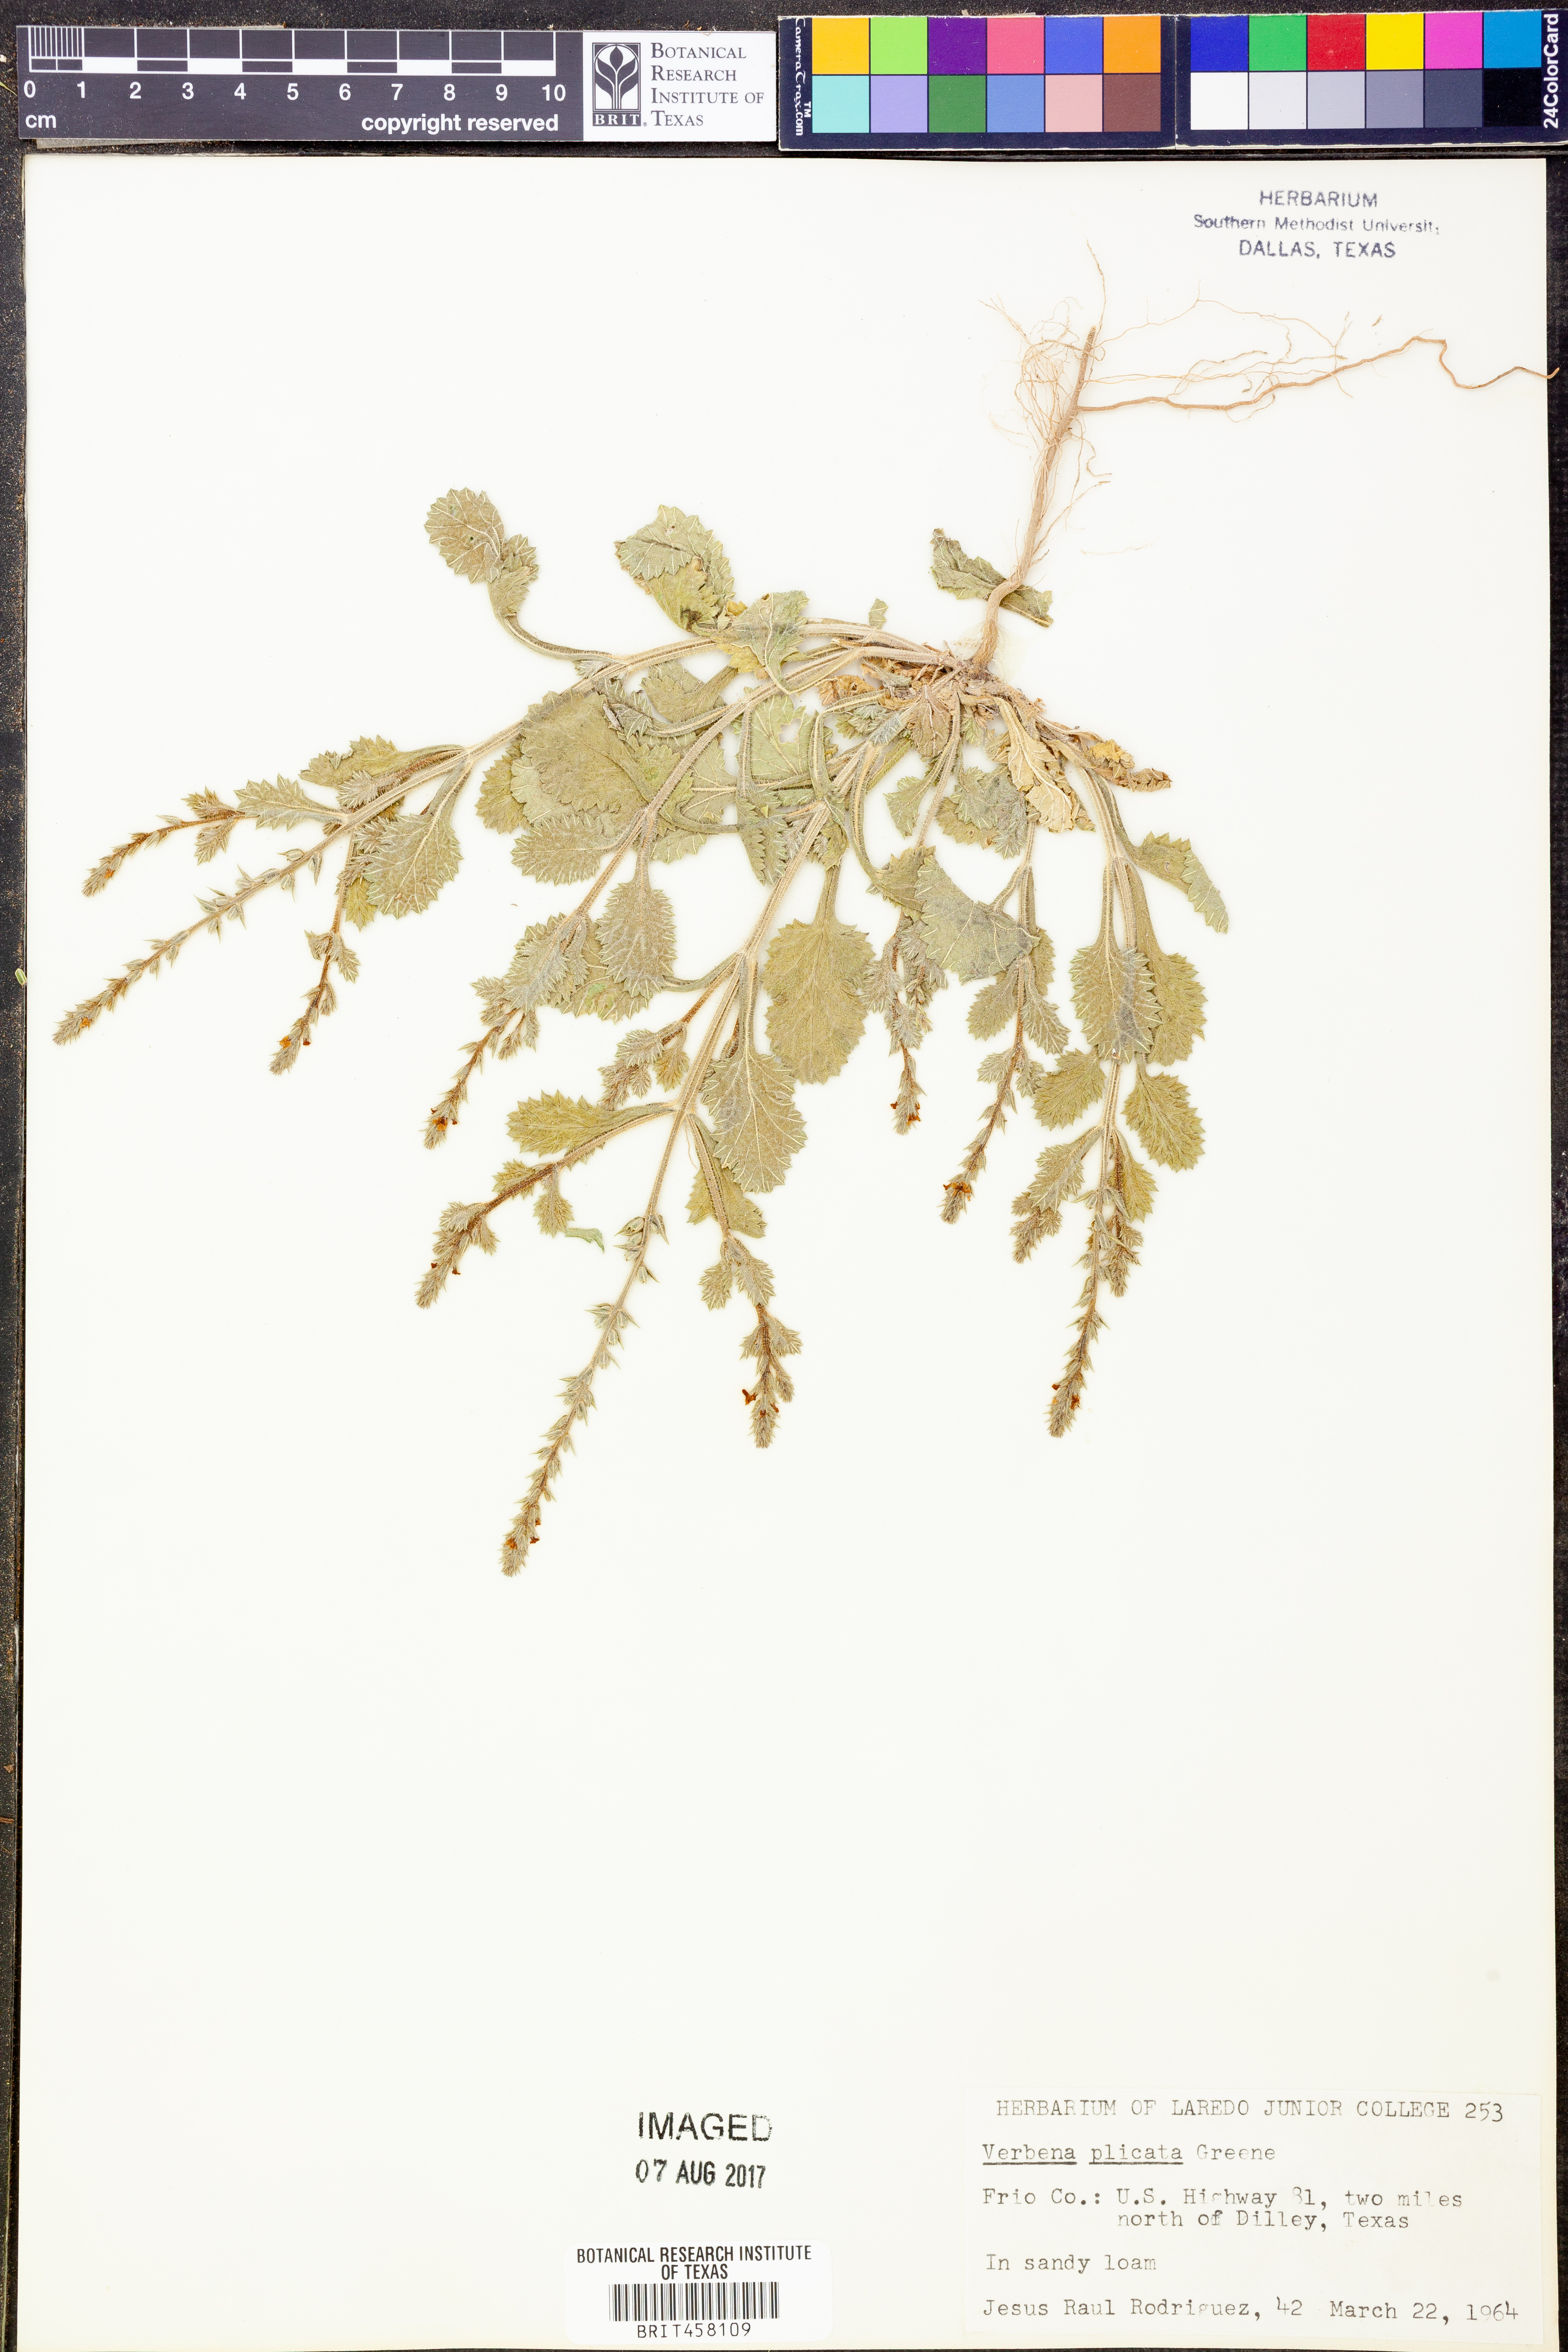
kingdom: Plantae
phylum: Tracheophyta
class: Magnoliopsida
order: Lamiales
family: Verbenaceae
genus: Verbena
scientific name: Verbena plicata
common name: Fan-leaf vervain
